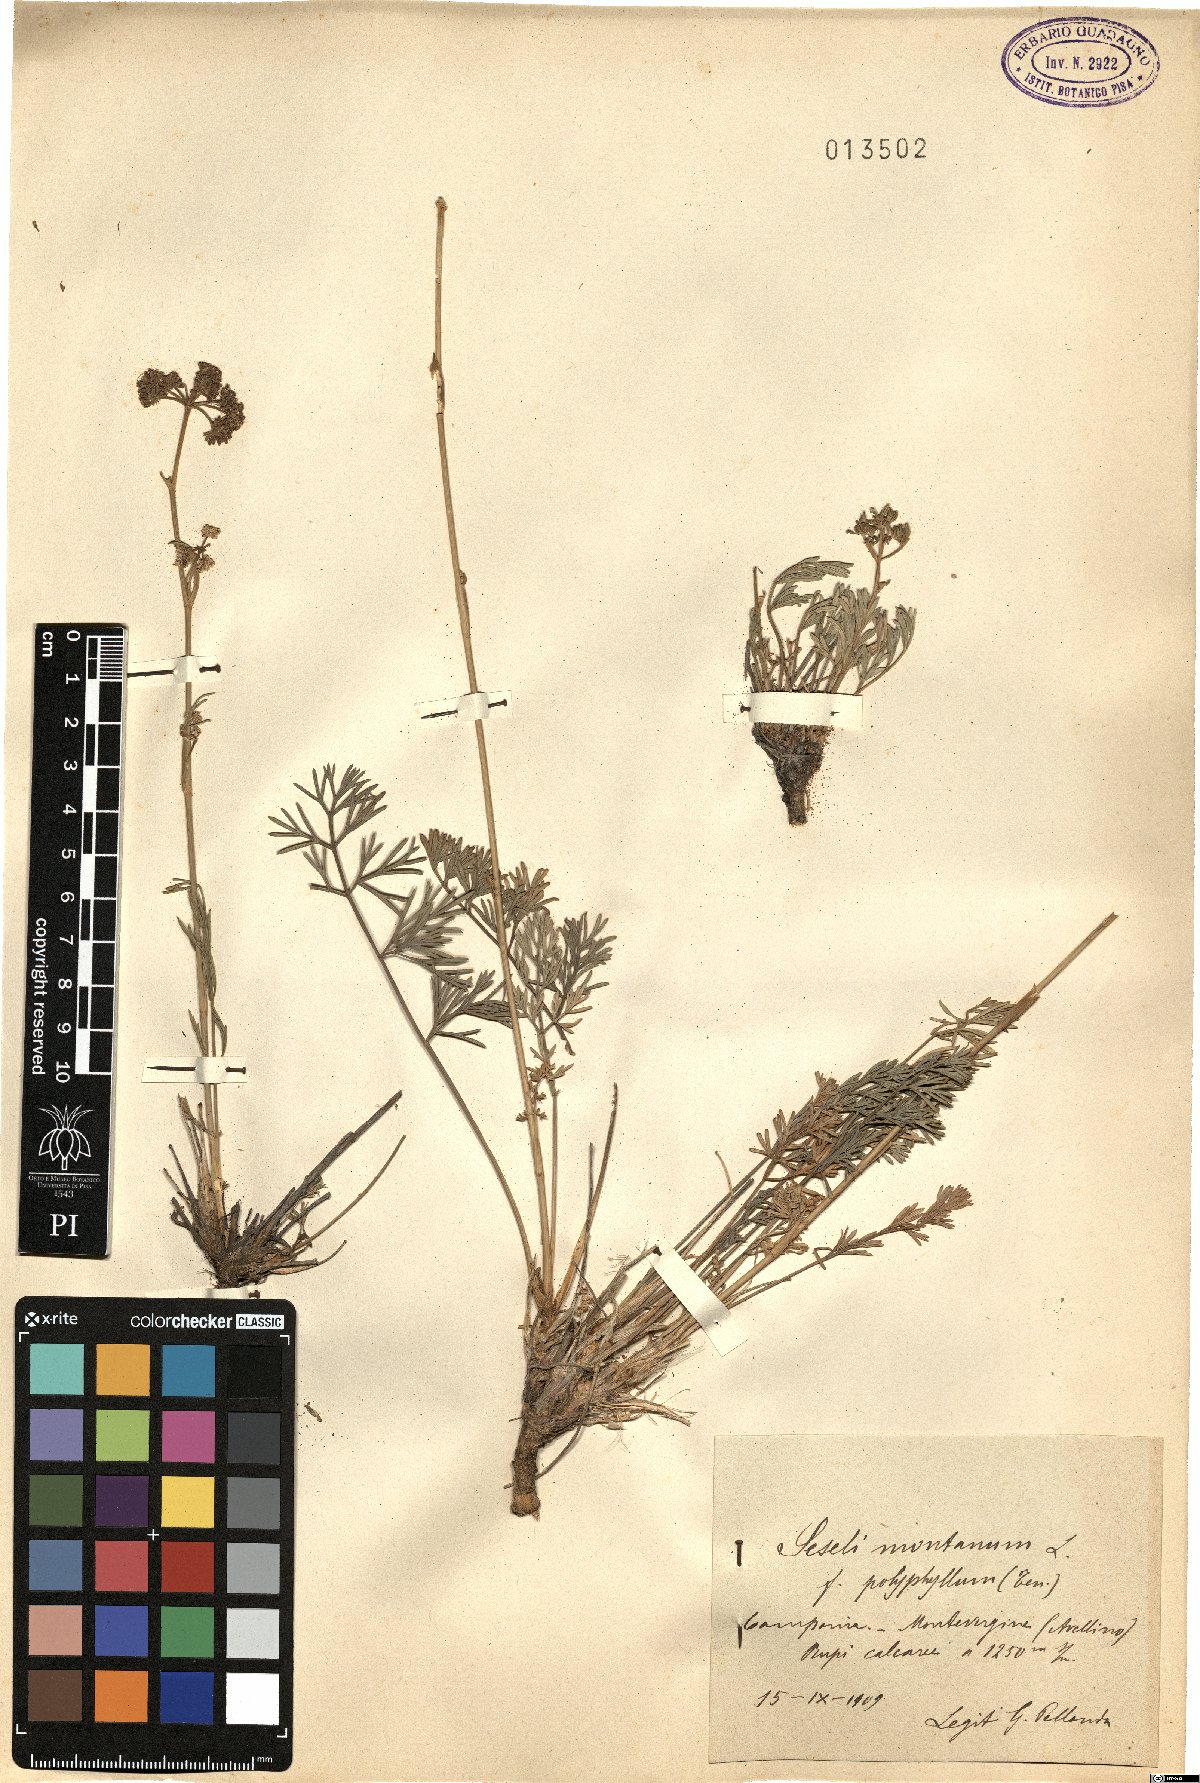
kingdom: Plantae
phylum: Tracheophyta
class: Magnoliopsida
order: Apiales
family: Apiaceae
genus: Seseli
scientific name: Seseli polyphyllum
